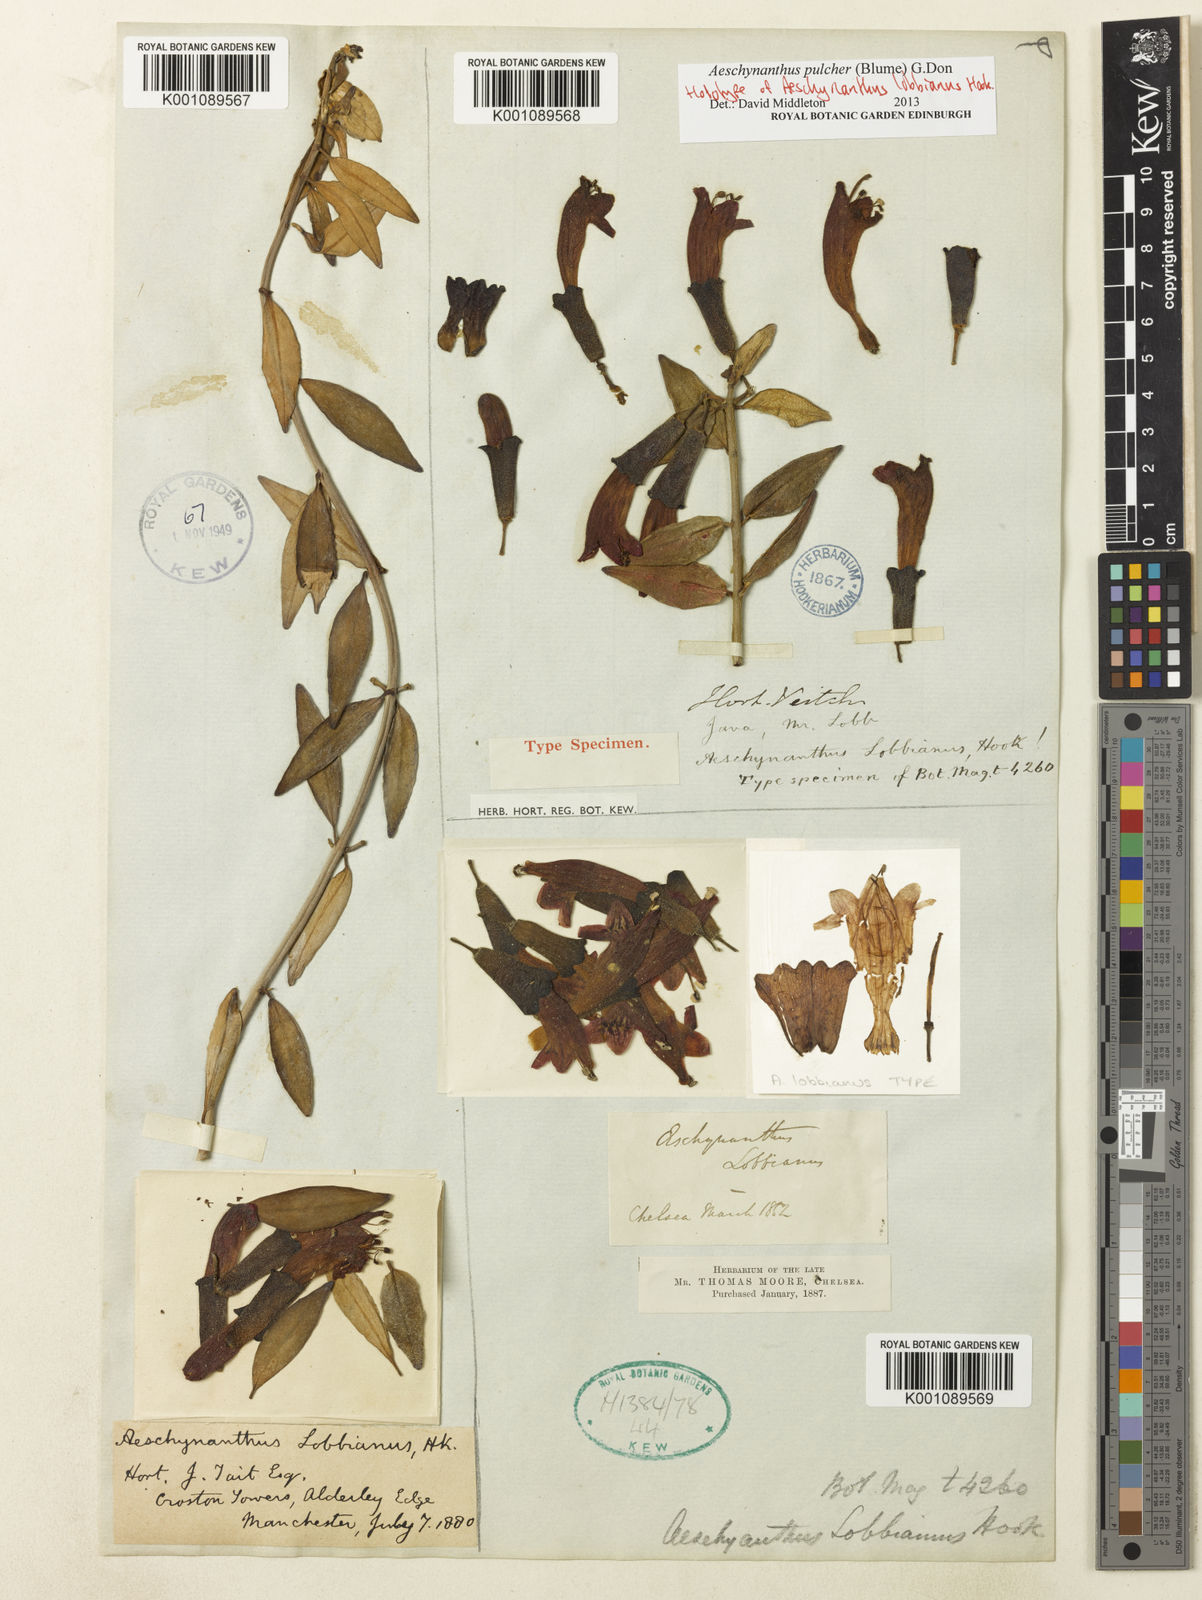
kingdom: Plantae
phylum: Tracheophyta
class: Magnoliopsida
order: Lamiales
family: Gesneriaceae
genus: Aeschynanthus
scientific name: Aeschynanthus pulcher
